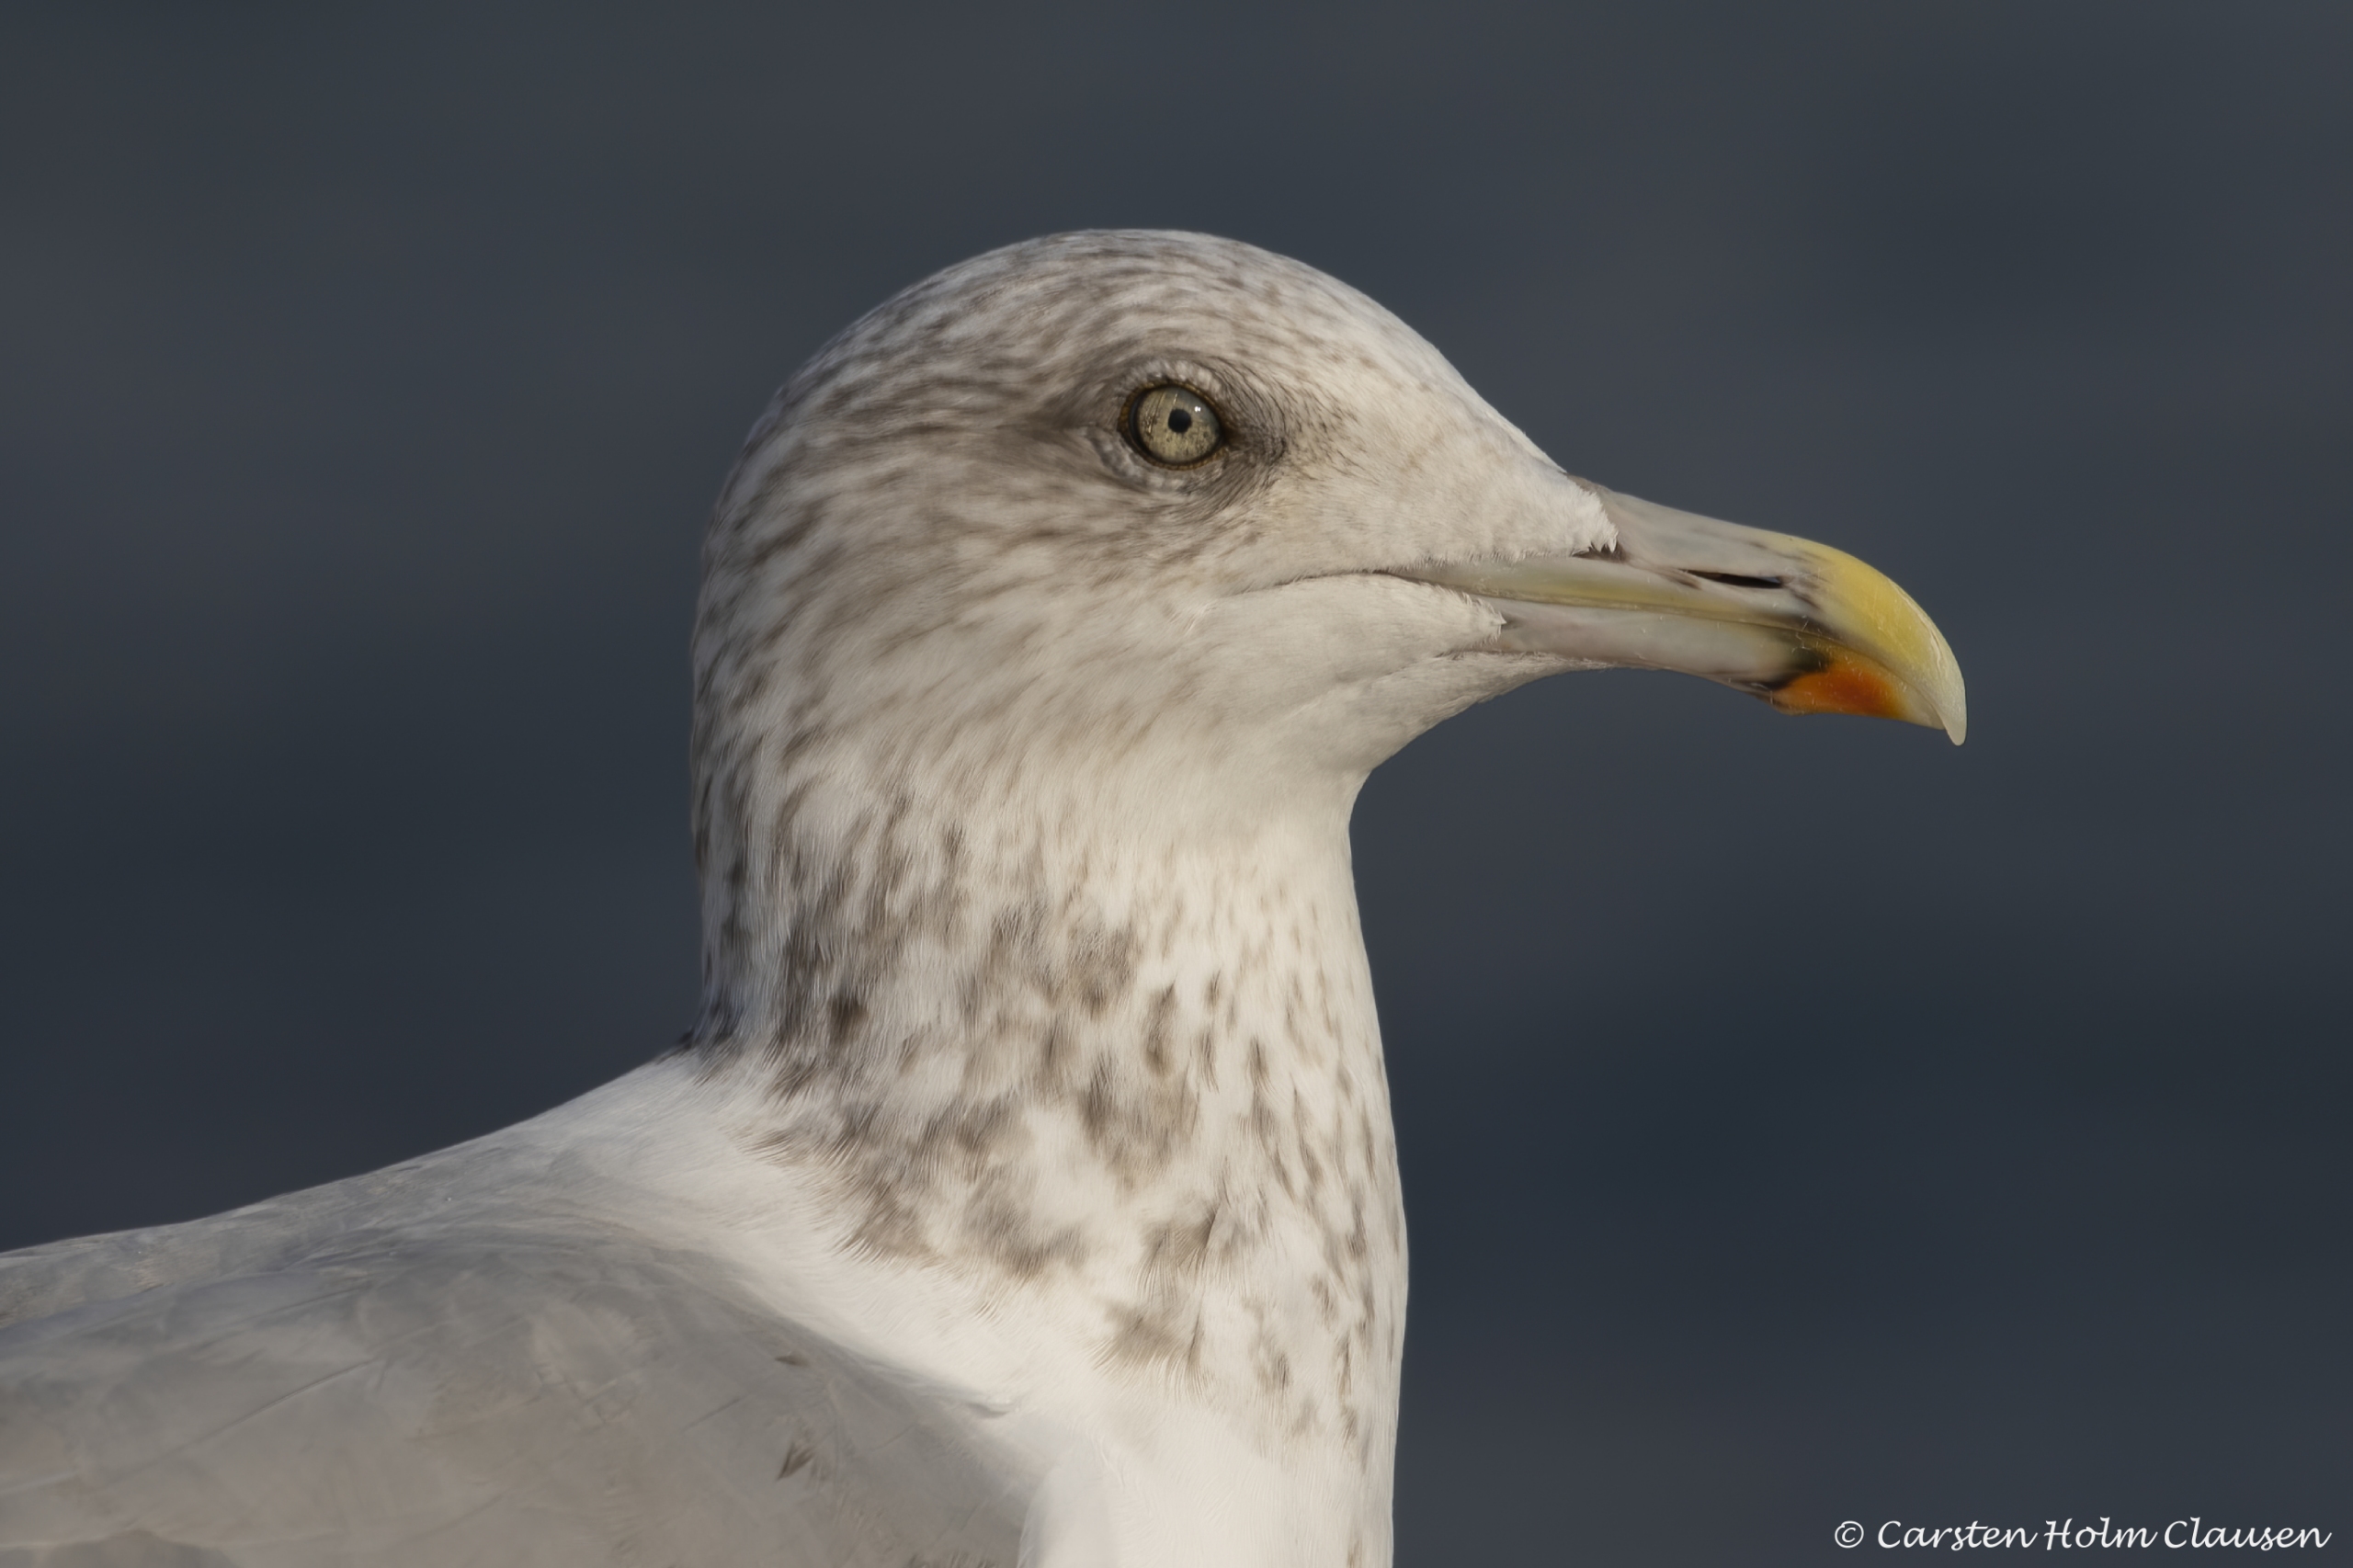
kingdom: Animalia
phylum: Chordata
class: Aves
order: Charadriiformes
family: Laridae
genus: Larus
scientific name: Larus argentatus
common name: Sølvmåge
